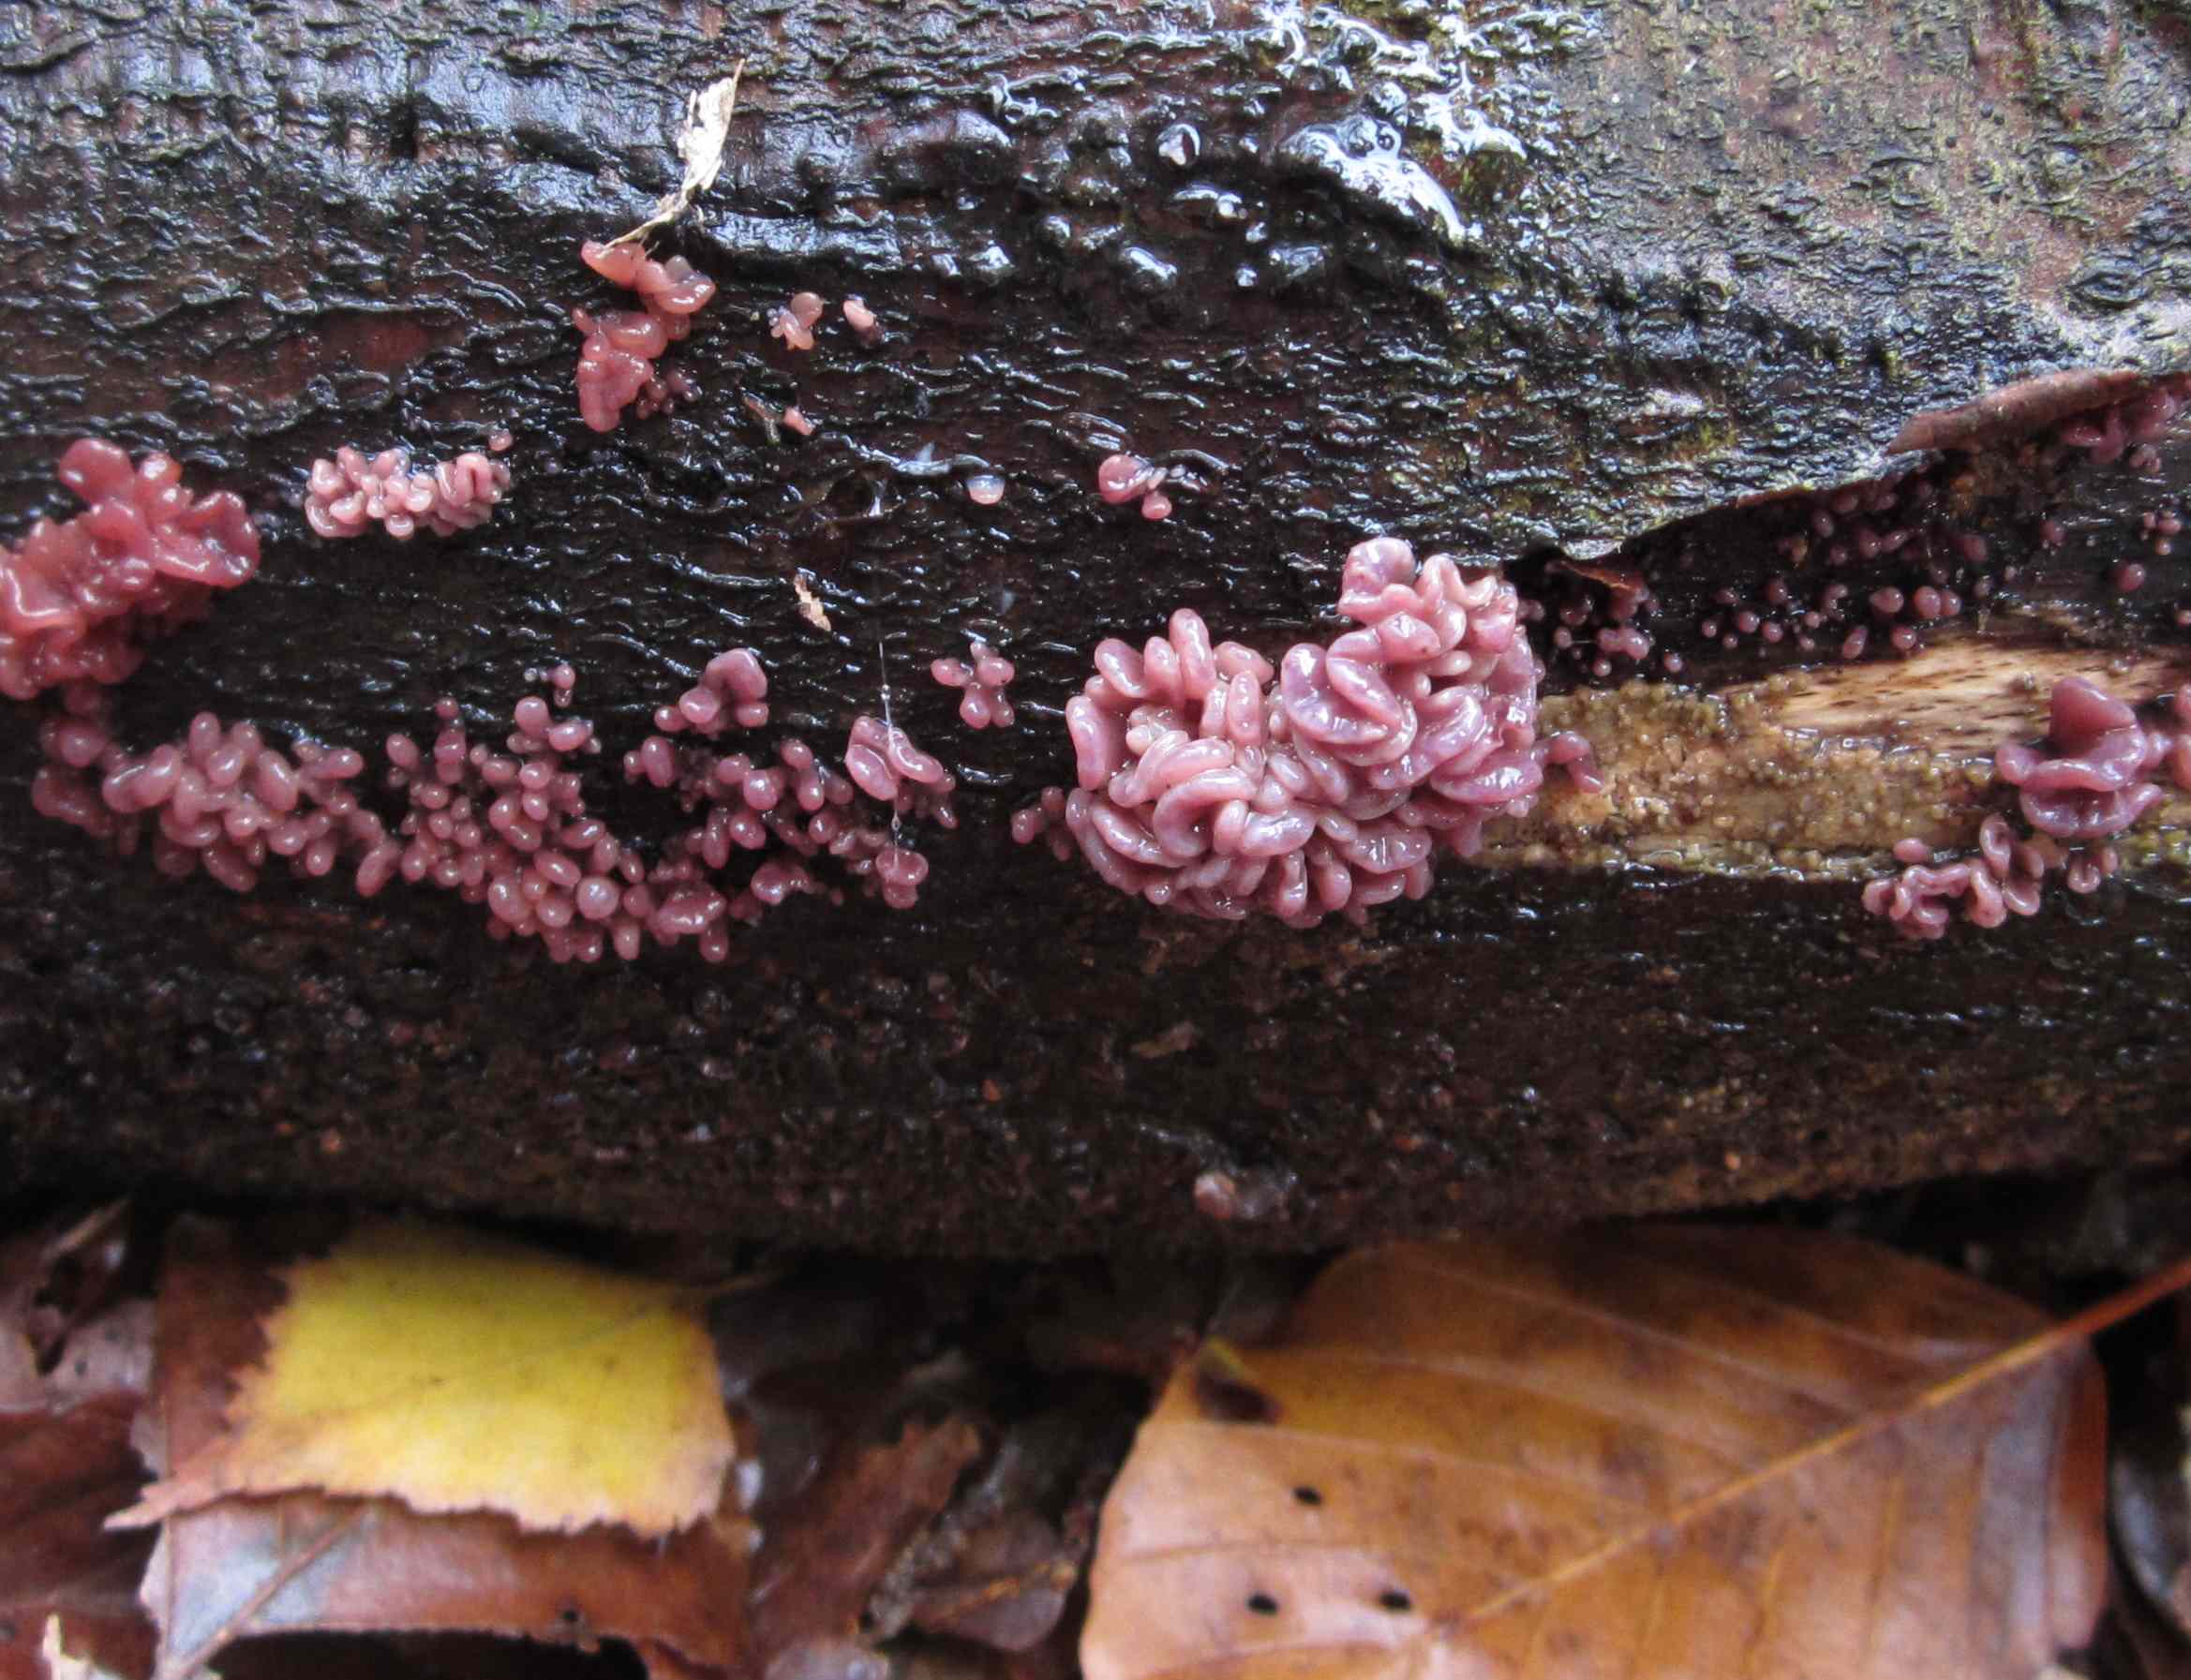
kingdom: Fungi
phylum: Ascomycota
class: Leotiomycetes
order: Helotiales
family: Gelatinodiscaceae
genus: Ascocoryne
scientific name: Ascocoryne sarcoides
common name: rødlilla sejskive
